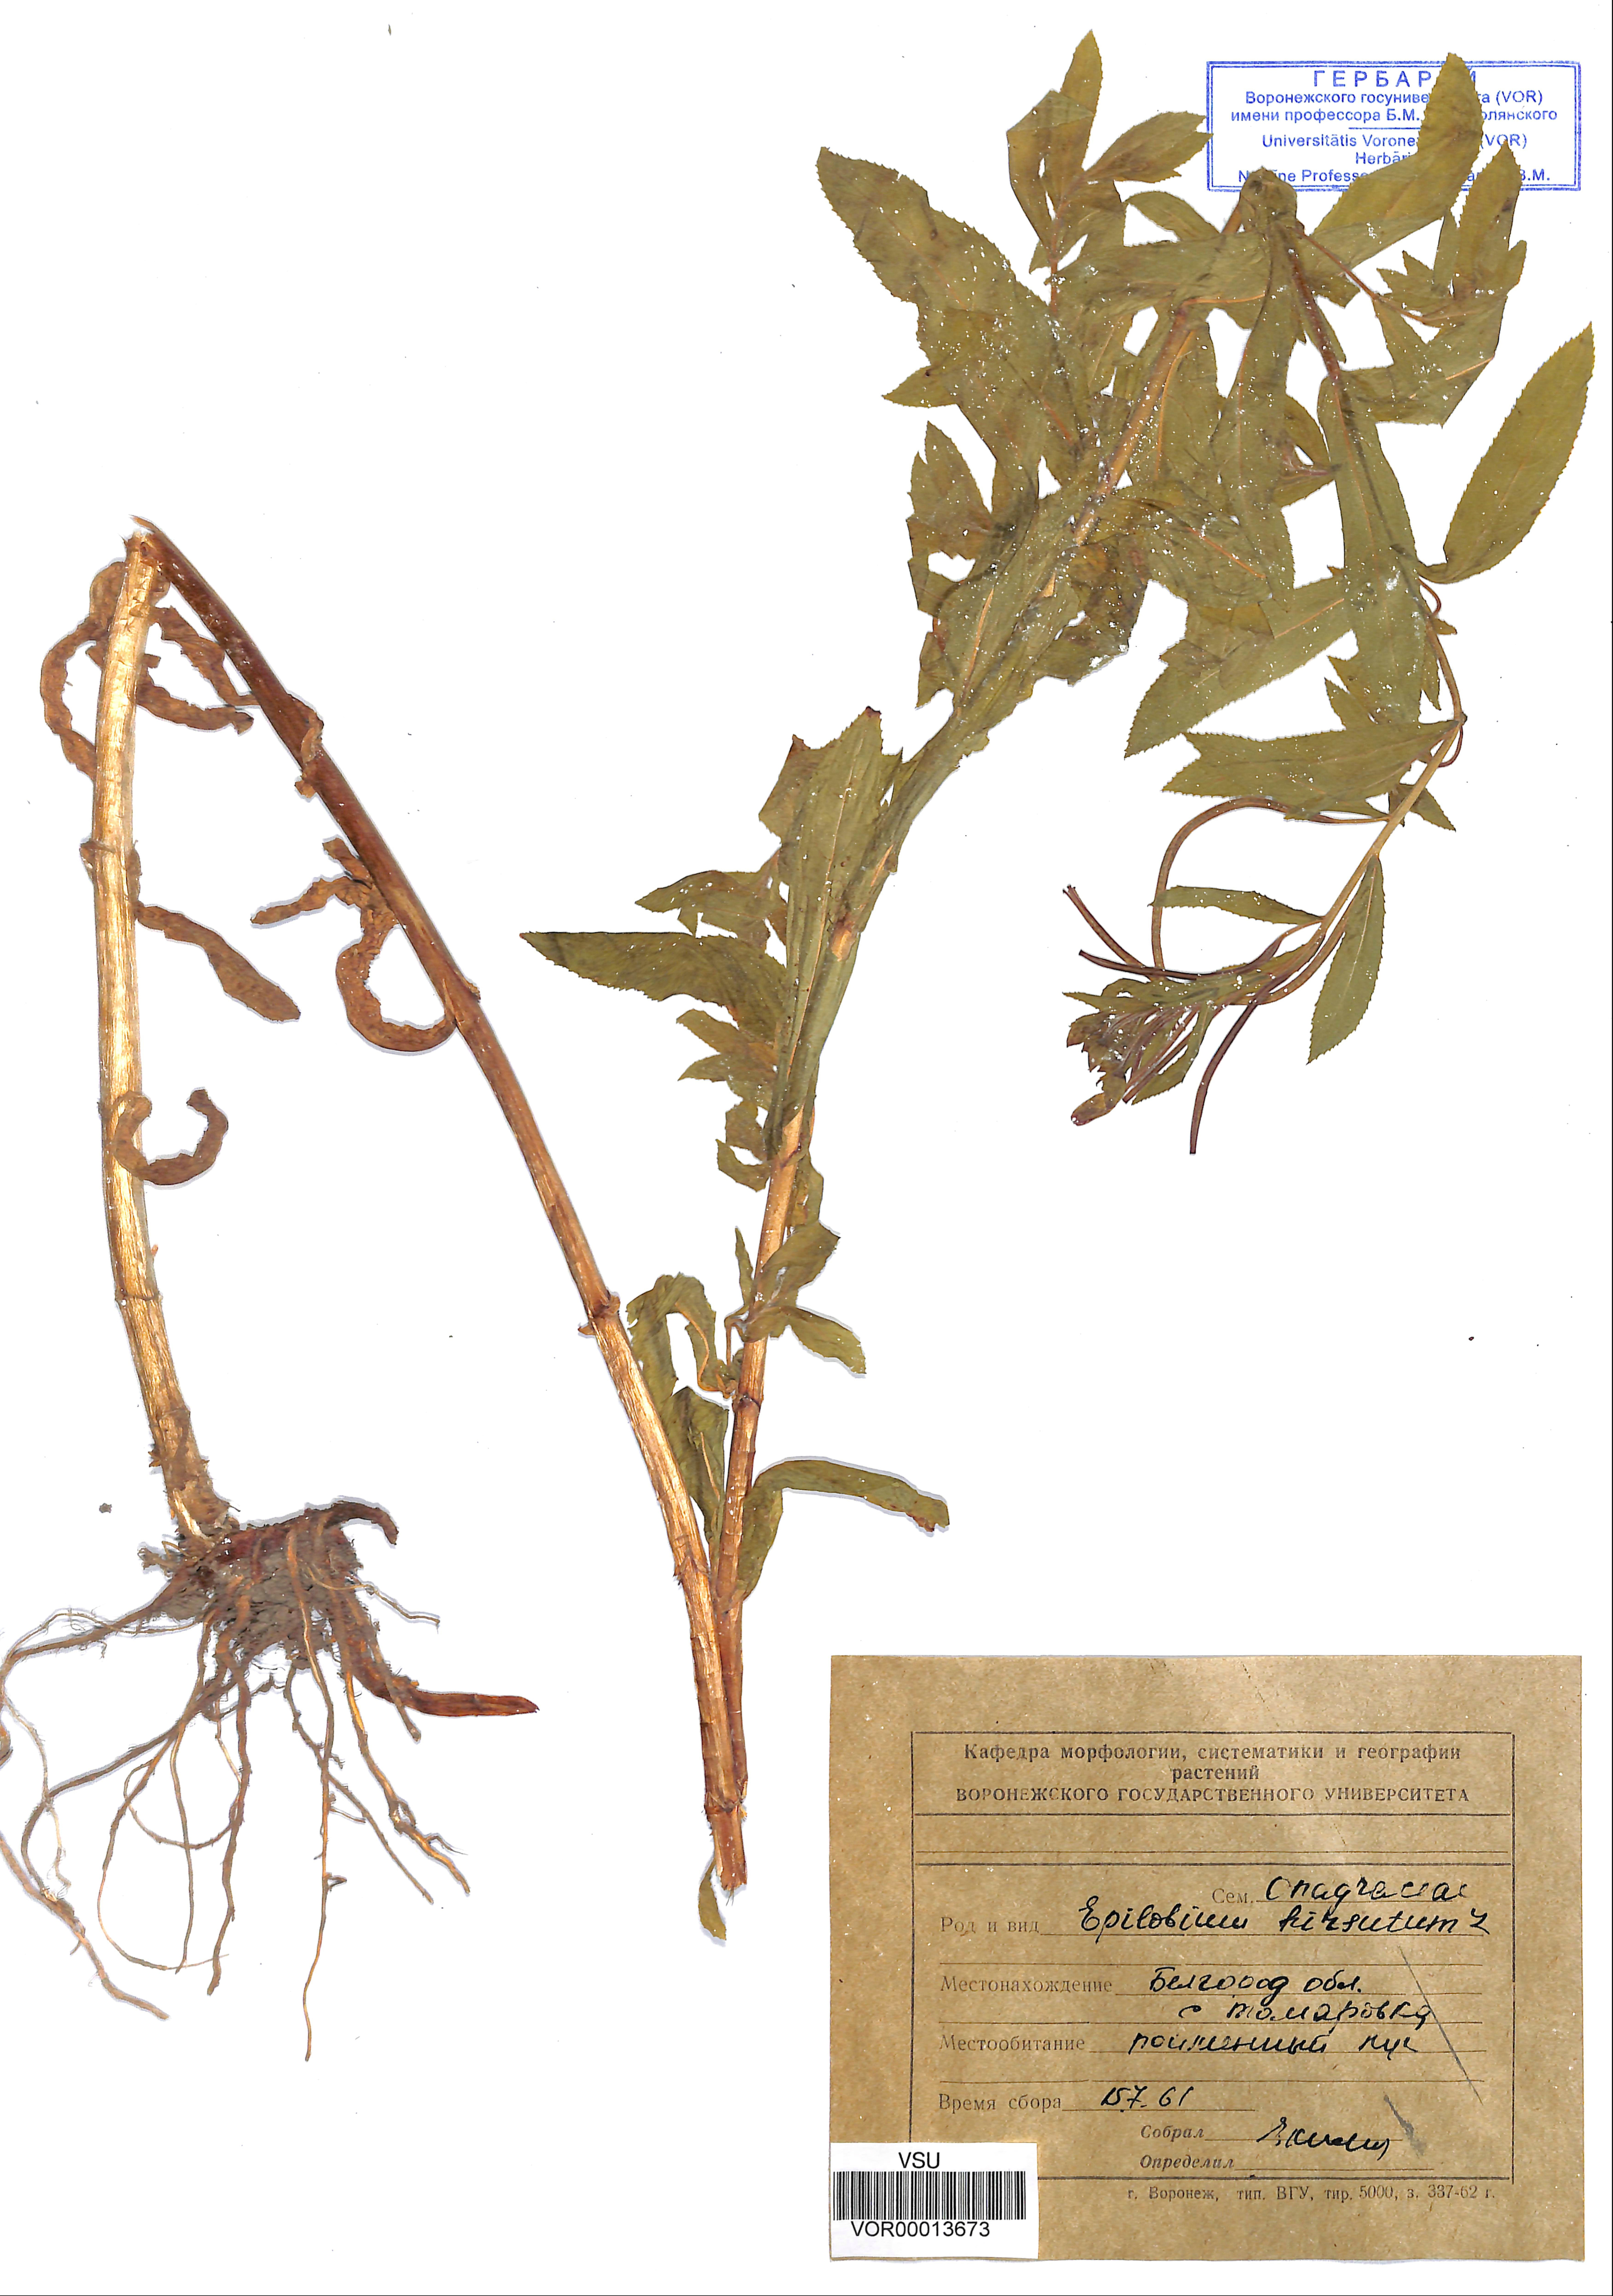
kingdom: Plantae
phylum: Tracheophyta
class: Magnoliopsida
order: Myrtales
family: Onagraceae
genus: Epilobium
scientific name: Epilobium hirsutum
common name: Great willowherb
